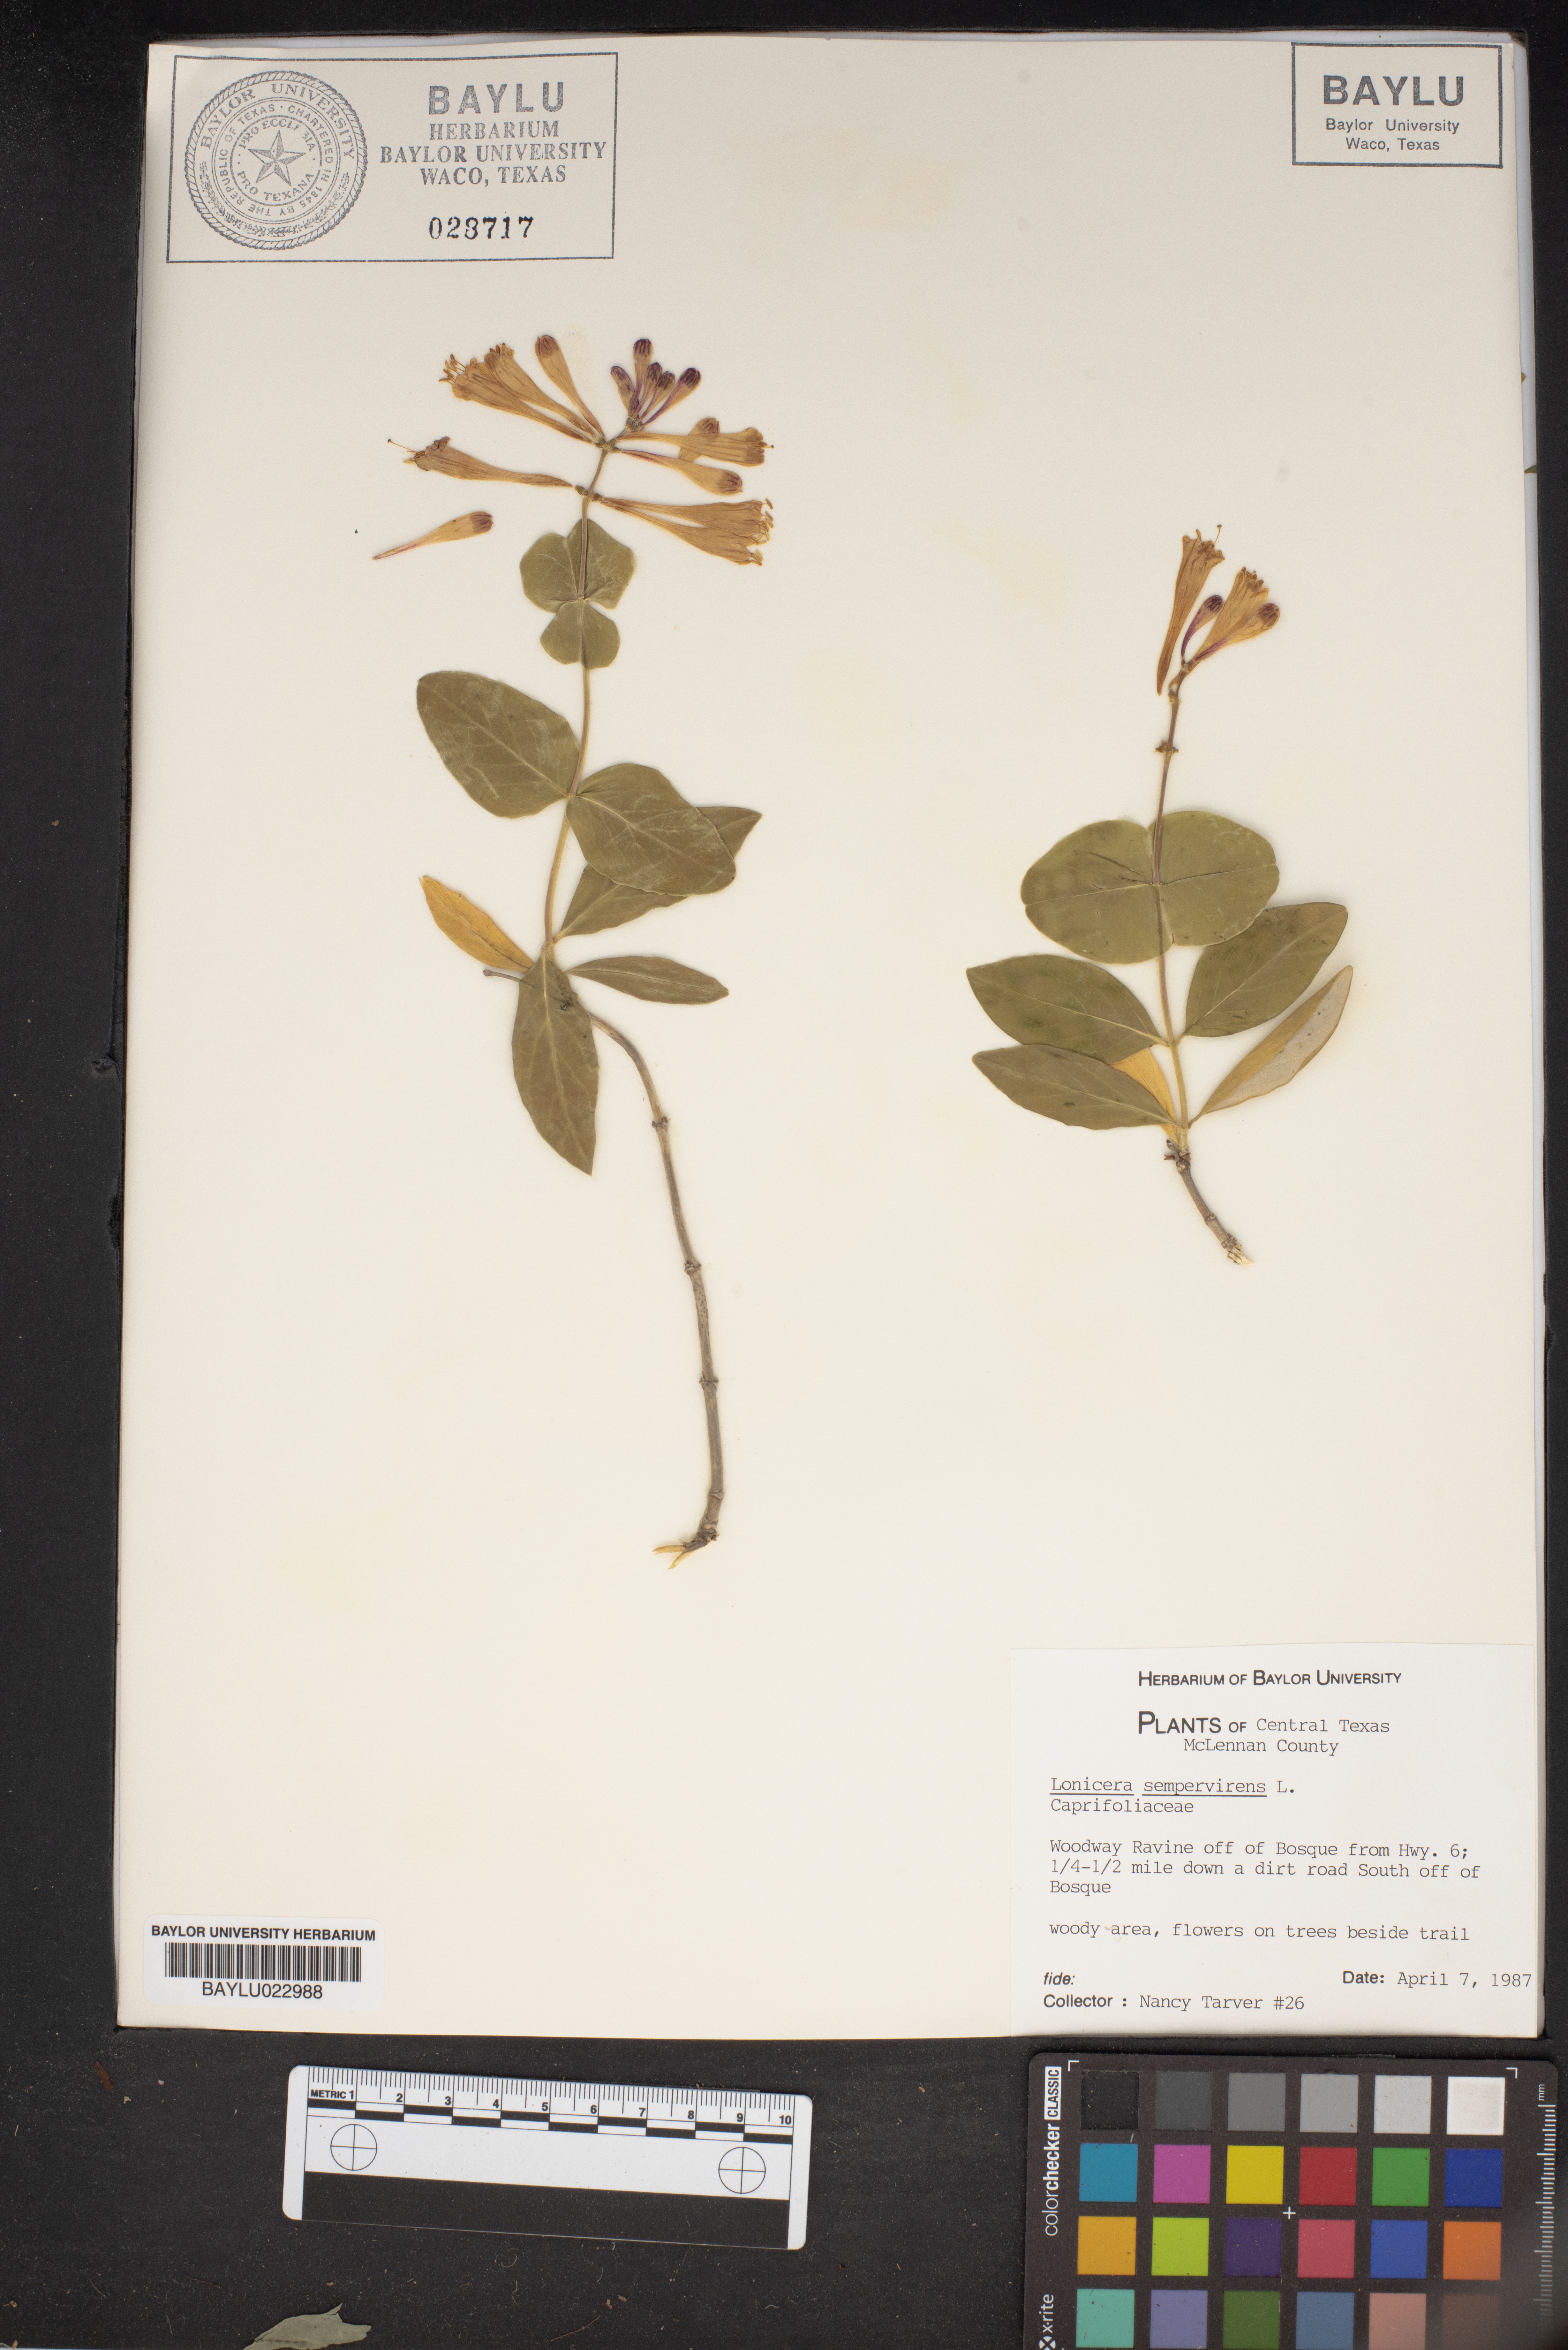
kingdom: Plantae
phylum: Tracheophyta
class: Magnoliopsida
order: Dipsacales
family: Caprifoliaceae
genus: Lonicera
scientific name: Lonicera sempervirens
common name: Coral honeysuckle
